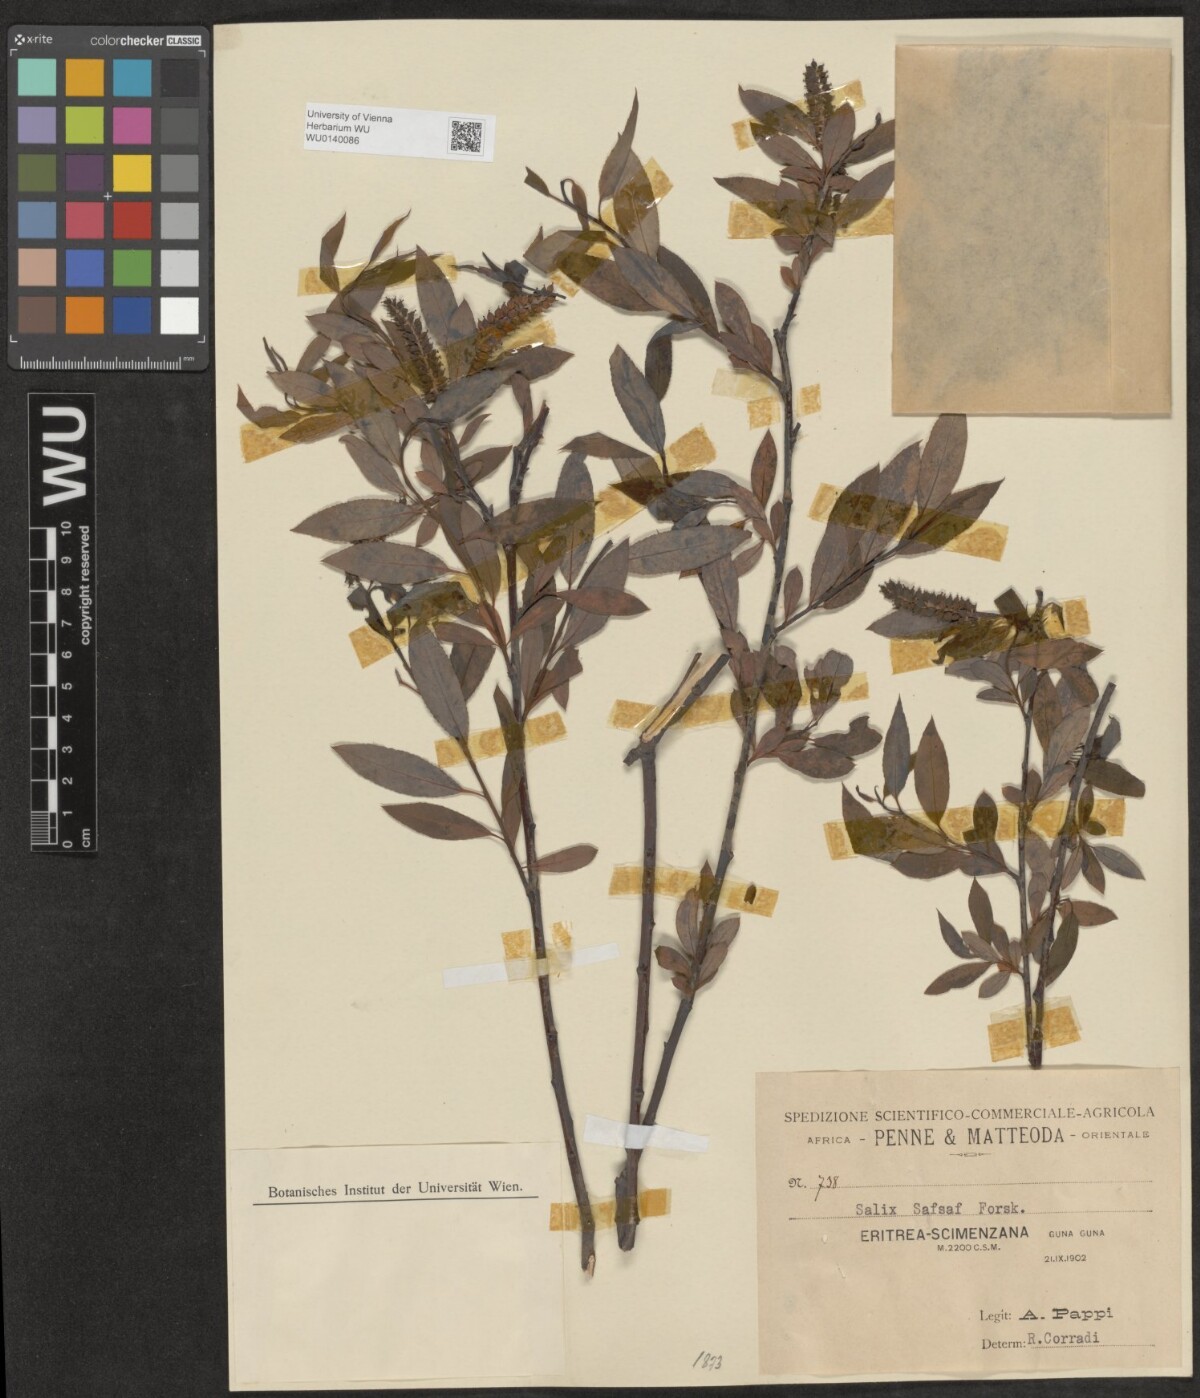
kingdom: Plantae
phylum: Tracheophyta
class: Magnoliopsida
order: Malpighiales
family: Salicaceae
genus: Salix
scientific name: Salix mucronata
